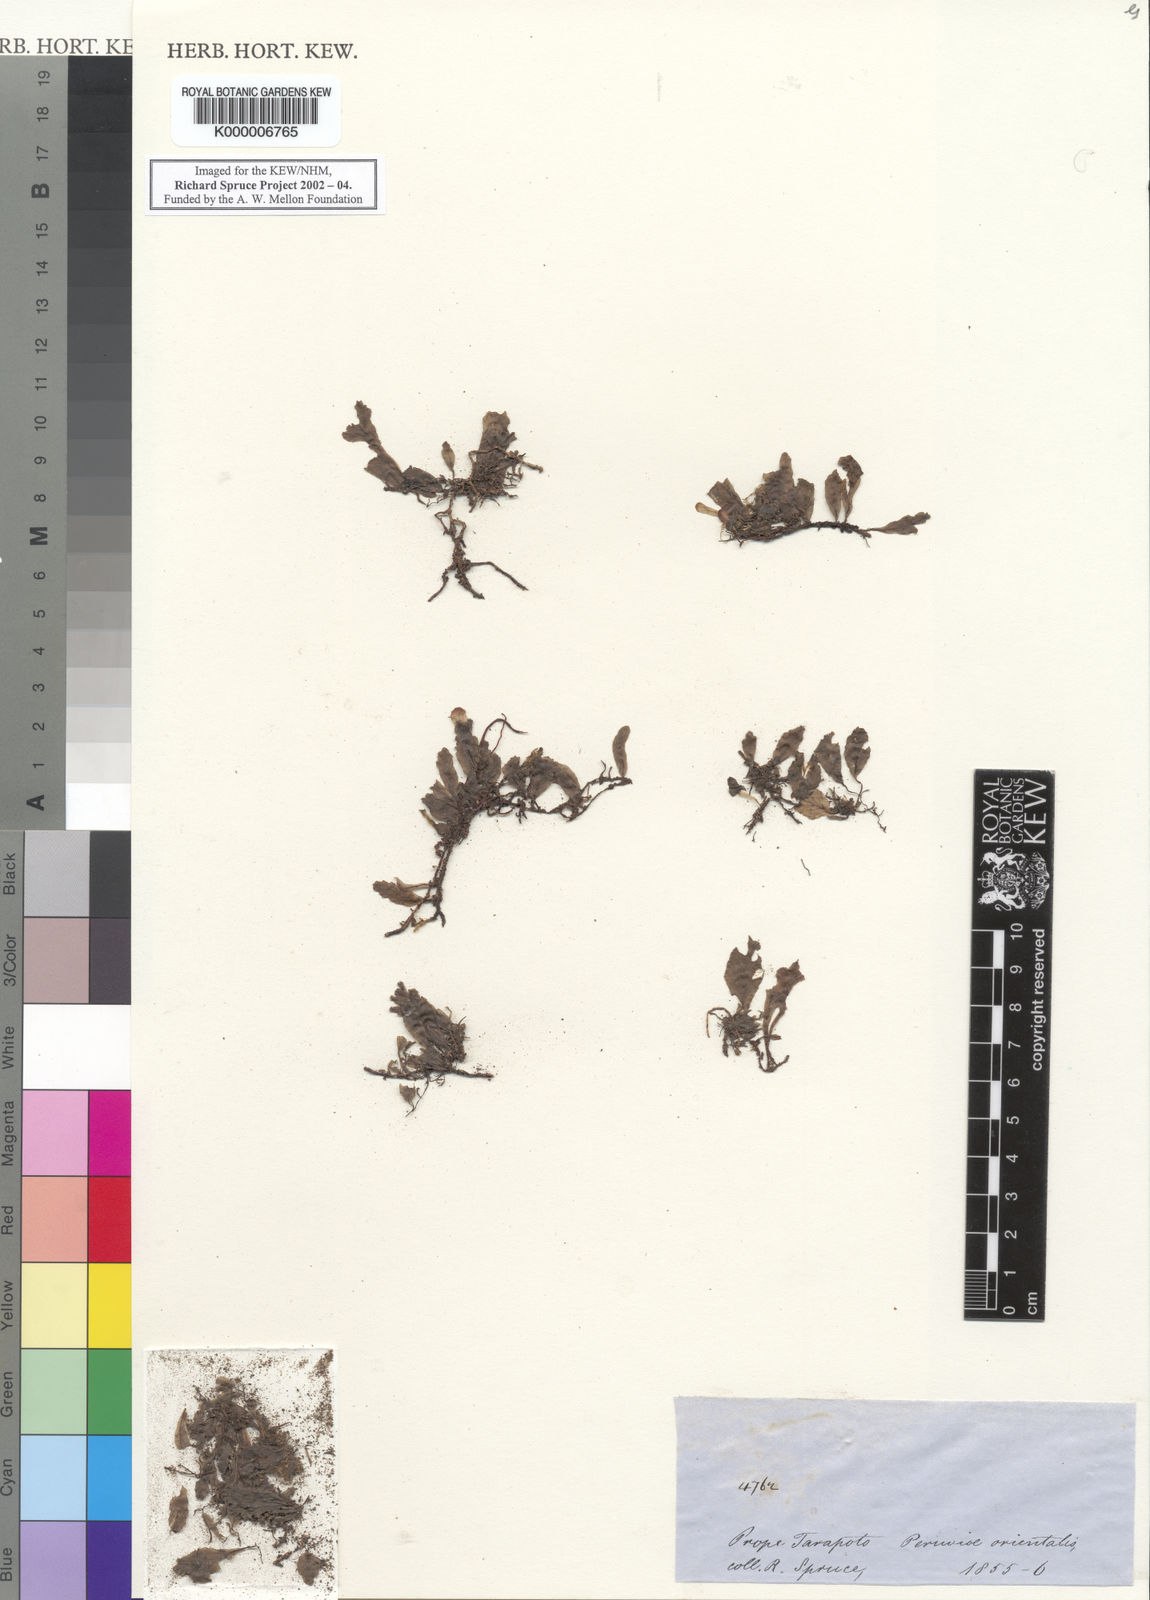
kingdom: Plantae
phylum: Tracheophyta
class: Polypodiopsida
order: Hymenophyllales
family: Hymenophyllaceae
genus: Trichomanes
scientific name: Trichomanes
